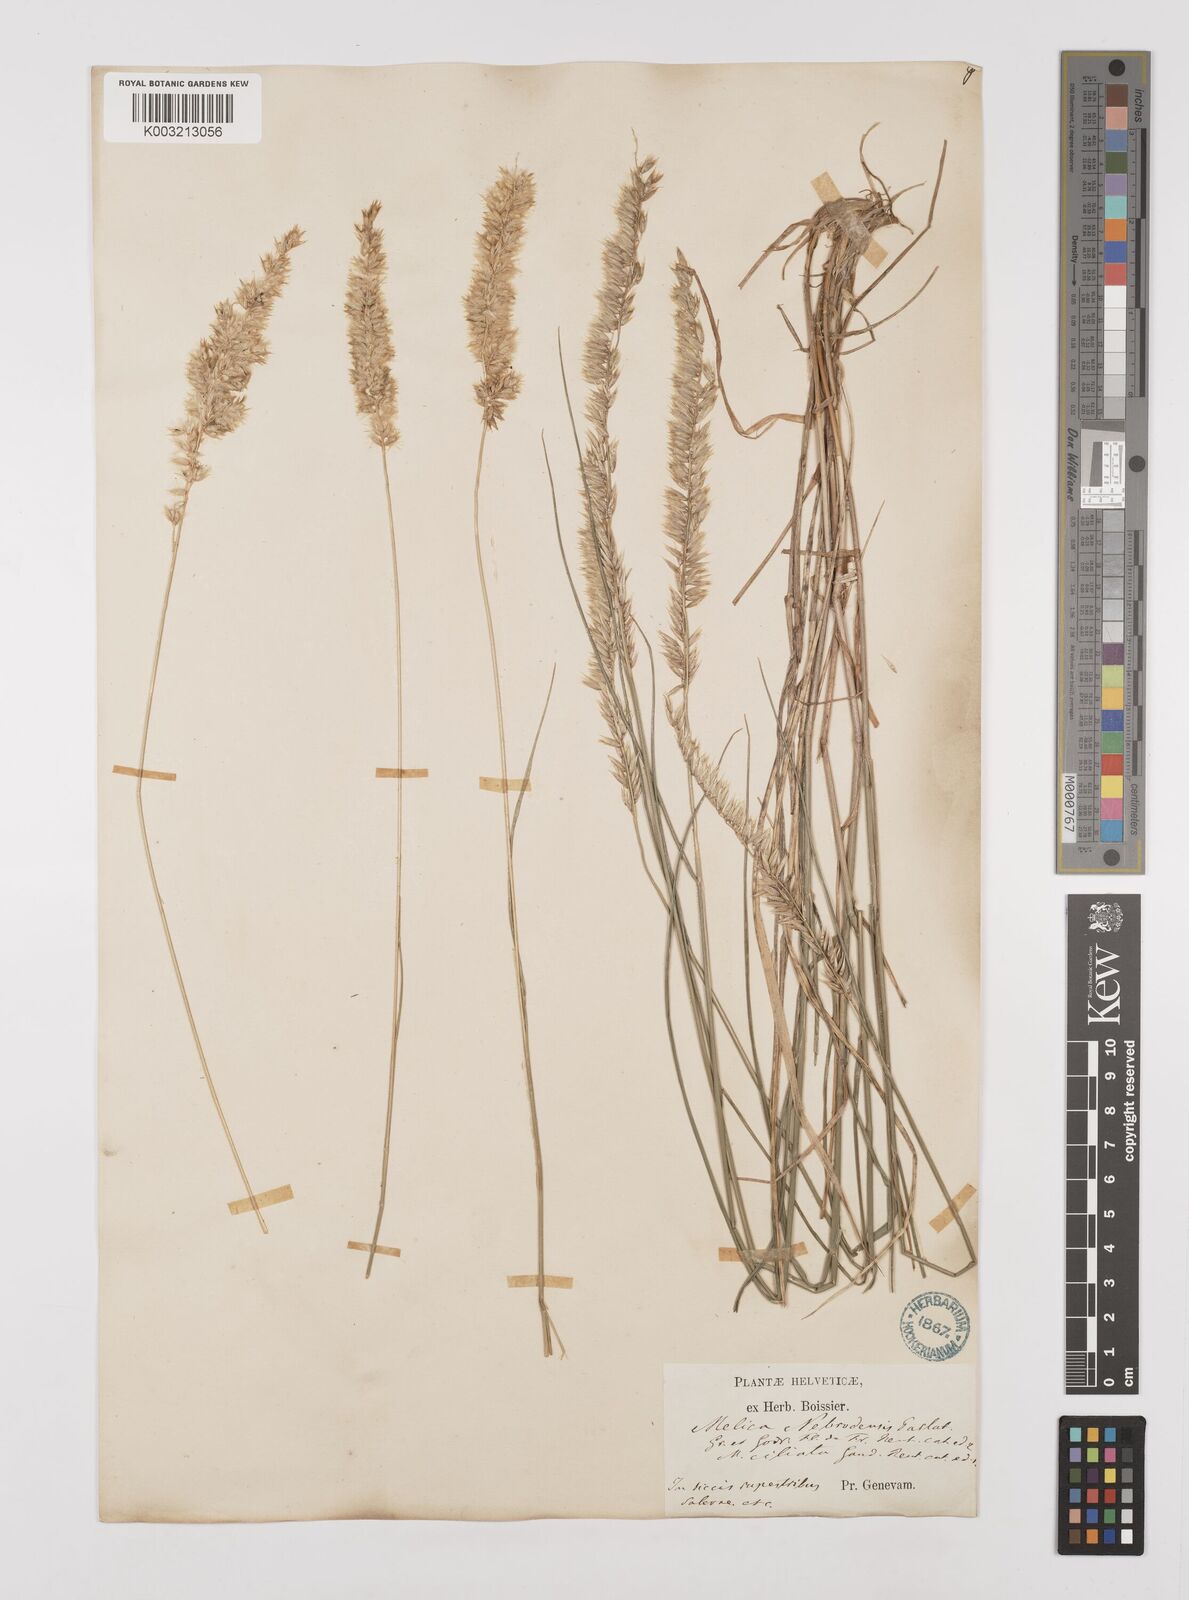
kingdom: Plantae
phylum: Tracheophyta
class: Liliopsida
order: Poales
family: Poaceae
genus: Melica
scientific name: Melica ciliata
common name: Hairy melicgrass
